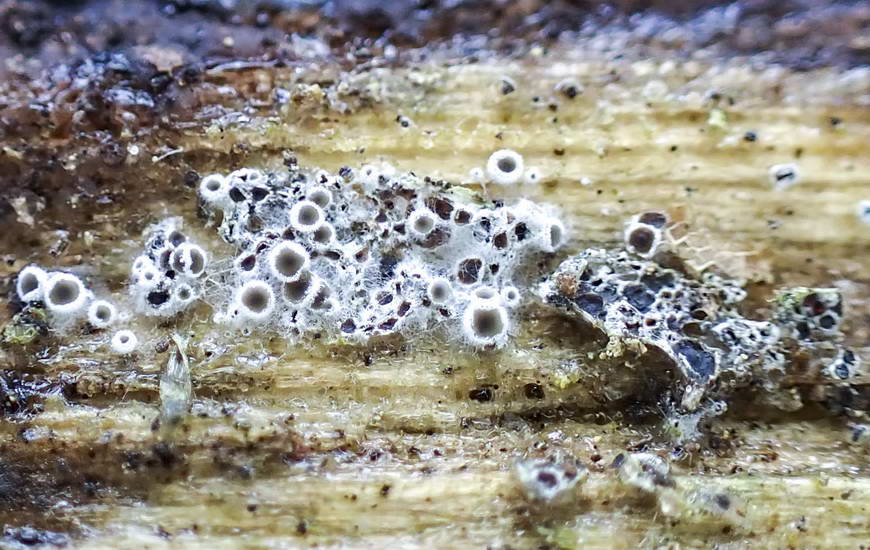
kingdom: Fungi
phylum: Ascomycota
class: Leotiomycetes
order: Helotiales
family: Arachnopezizaceae
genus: Eriopezia
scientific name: Eriopezia caesia
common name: ege-spindskive
